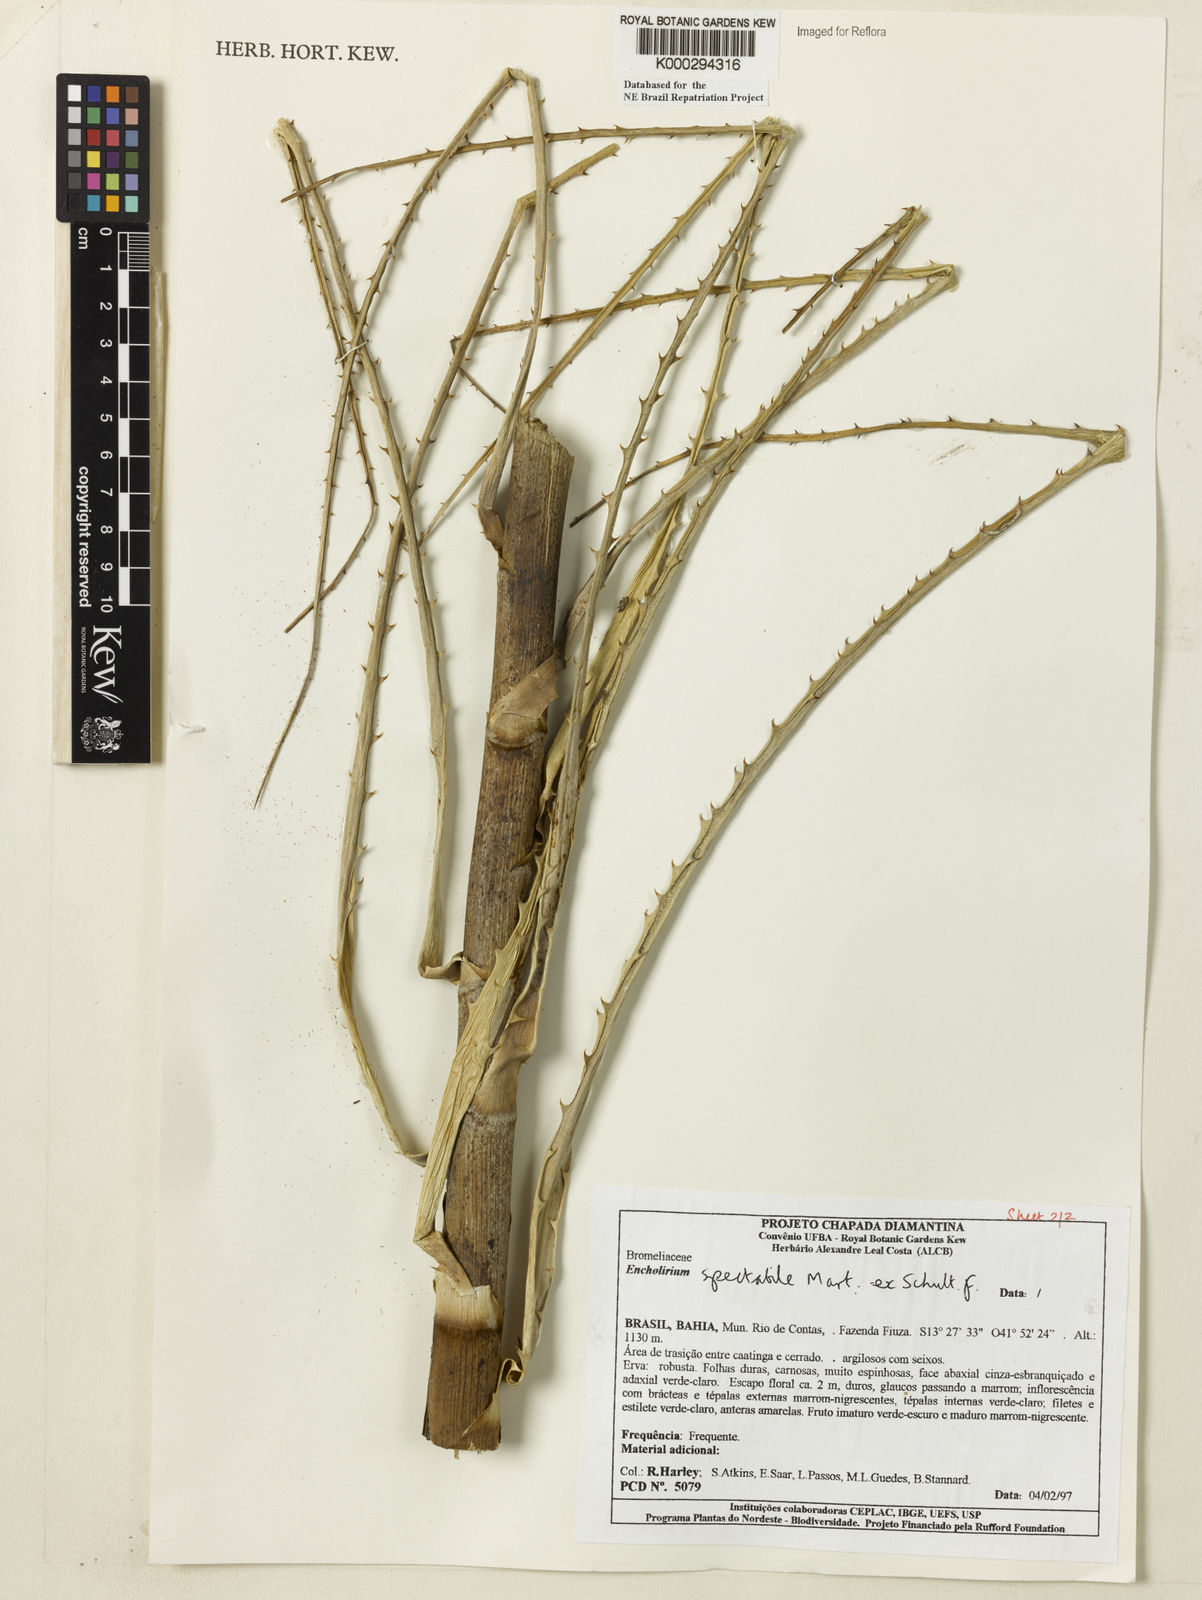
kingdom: Plantae
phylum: Tracheophyta
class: Liliopsida
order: Poales
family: Bromeliaceae
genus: Encholirium
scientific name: Encholirium spectabile
